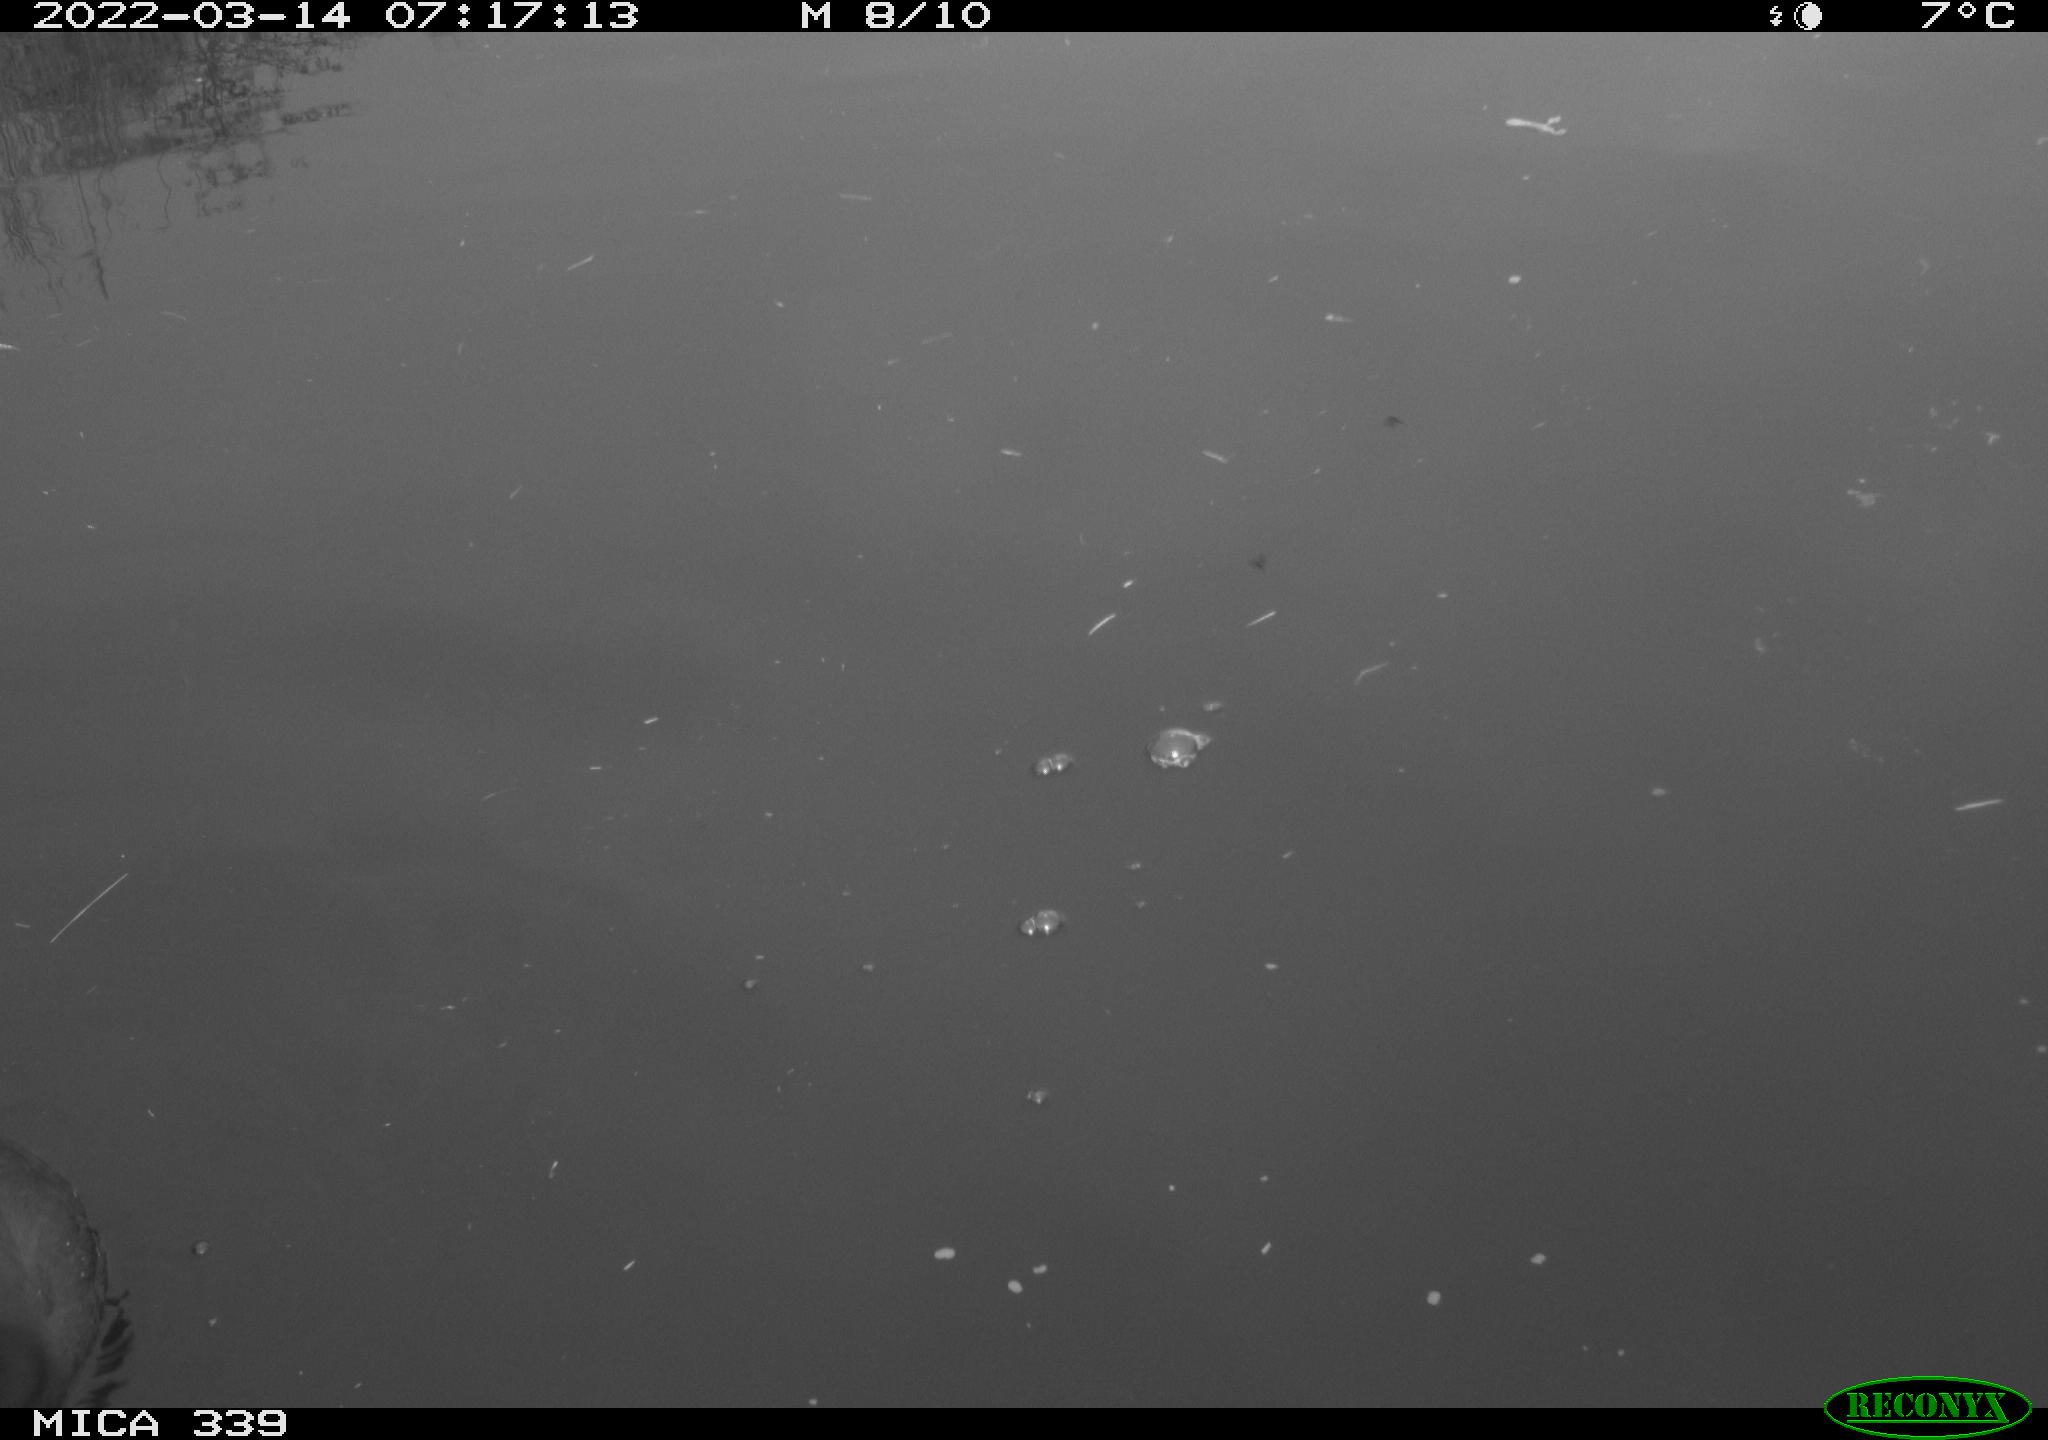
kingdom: Animalia
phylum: Chordata
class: Aves
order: Gruiformes
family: Rallidae
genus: Fulica
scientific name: Fulica atra
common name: Eurasian coot
